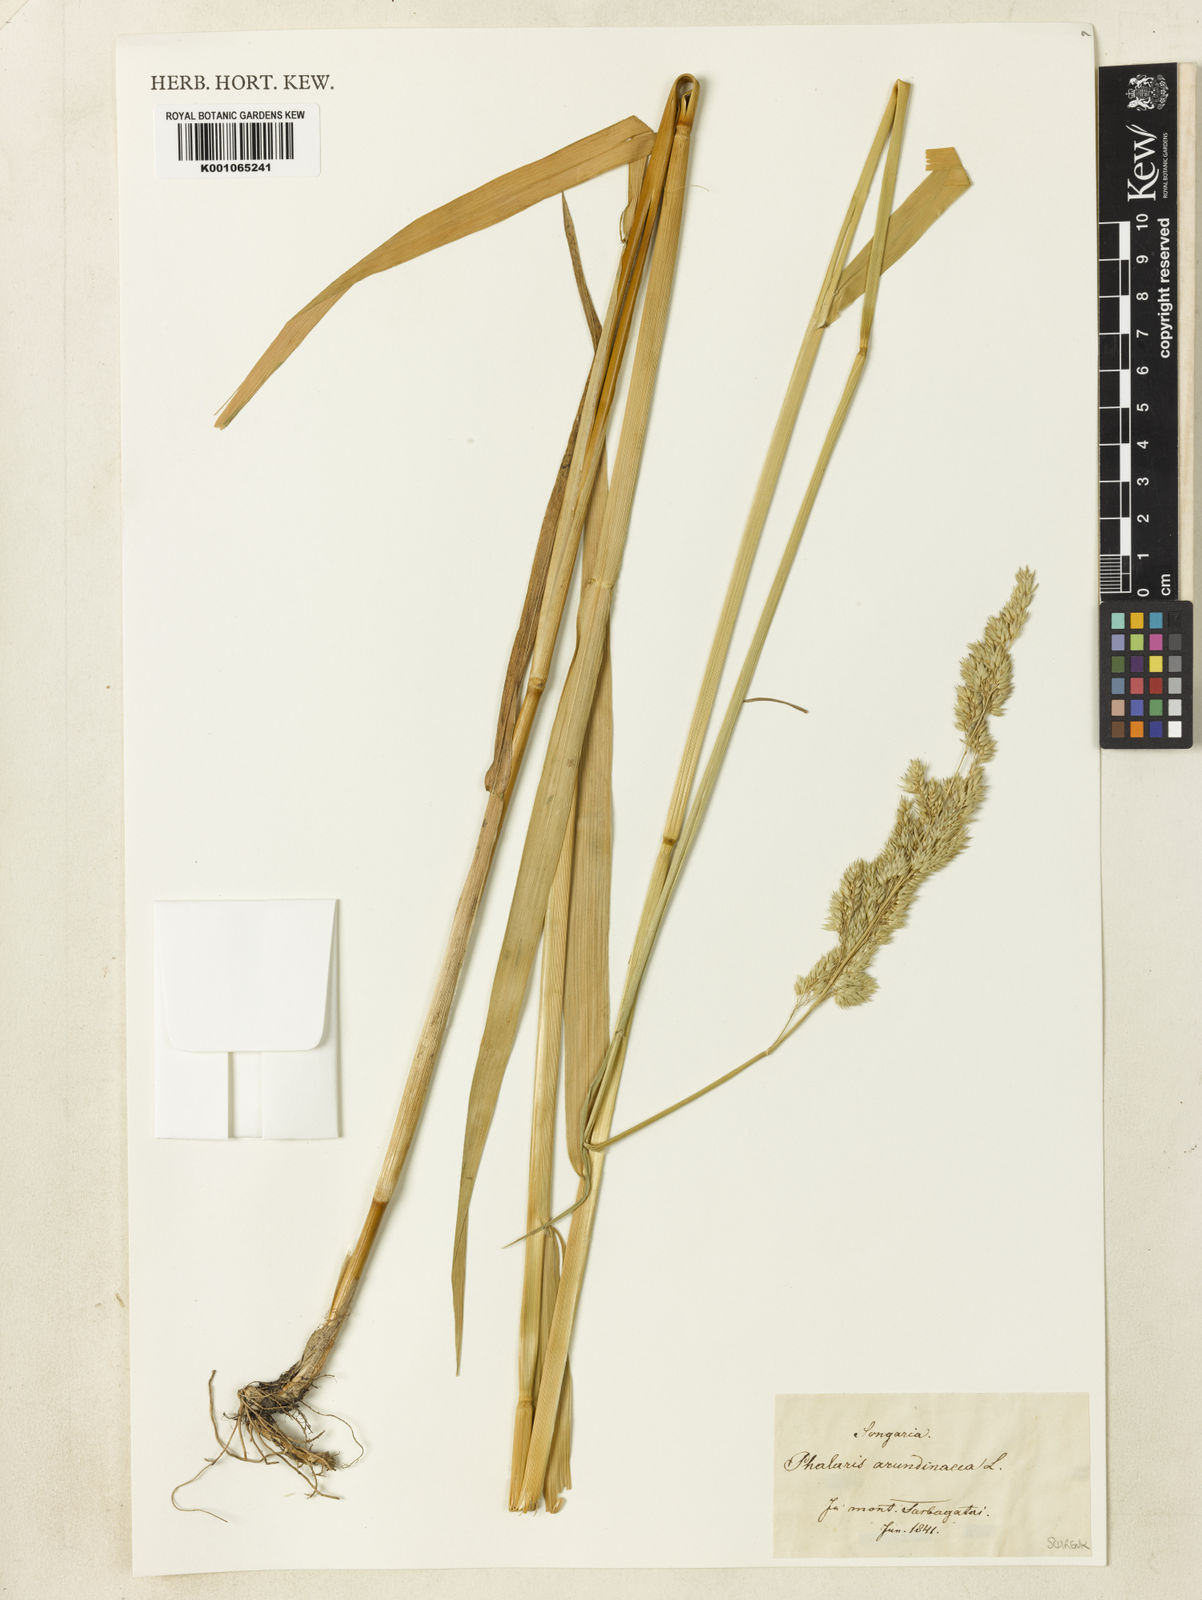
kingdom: Plantae
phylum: Tracheophyta
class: Liliopsida
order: Poales
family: Poaceae
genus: Phalaris
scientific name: Phalaris arundinacea
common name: Reed canary-grass
